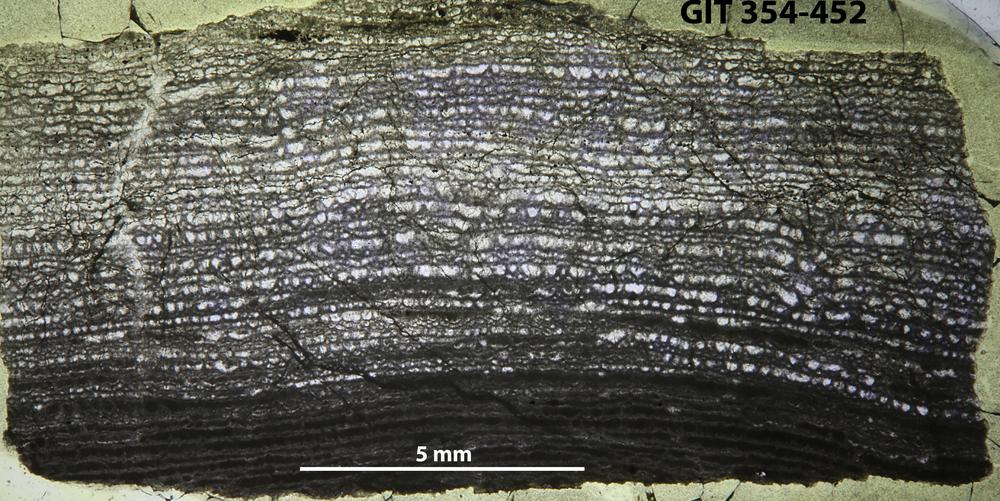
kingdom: Animalia
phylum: Porifera
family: Clathrodictyidae
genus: Clathrodictyon
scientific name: Clathrodictyon Stromatopora variolaris
